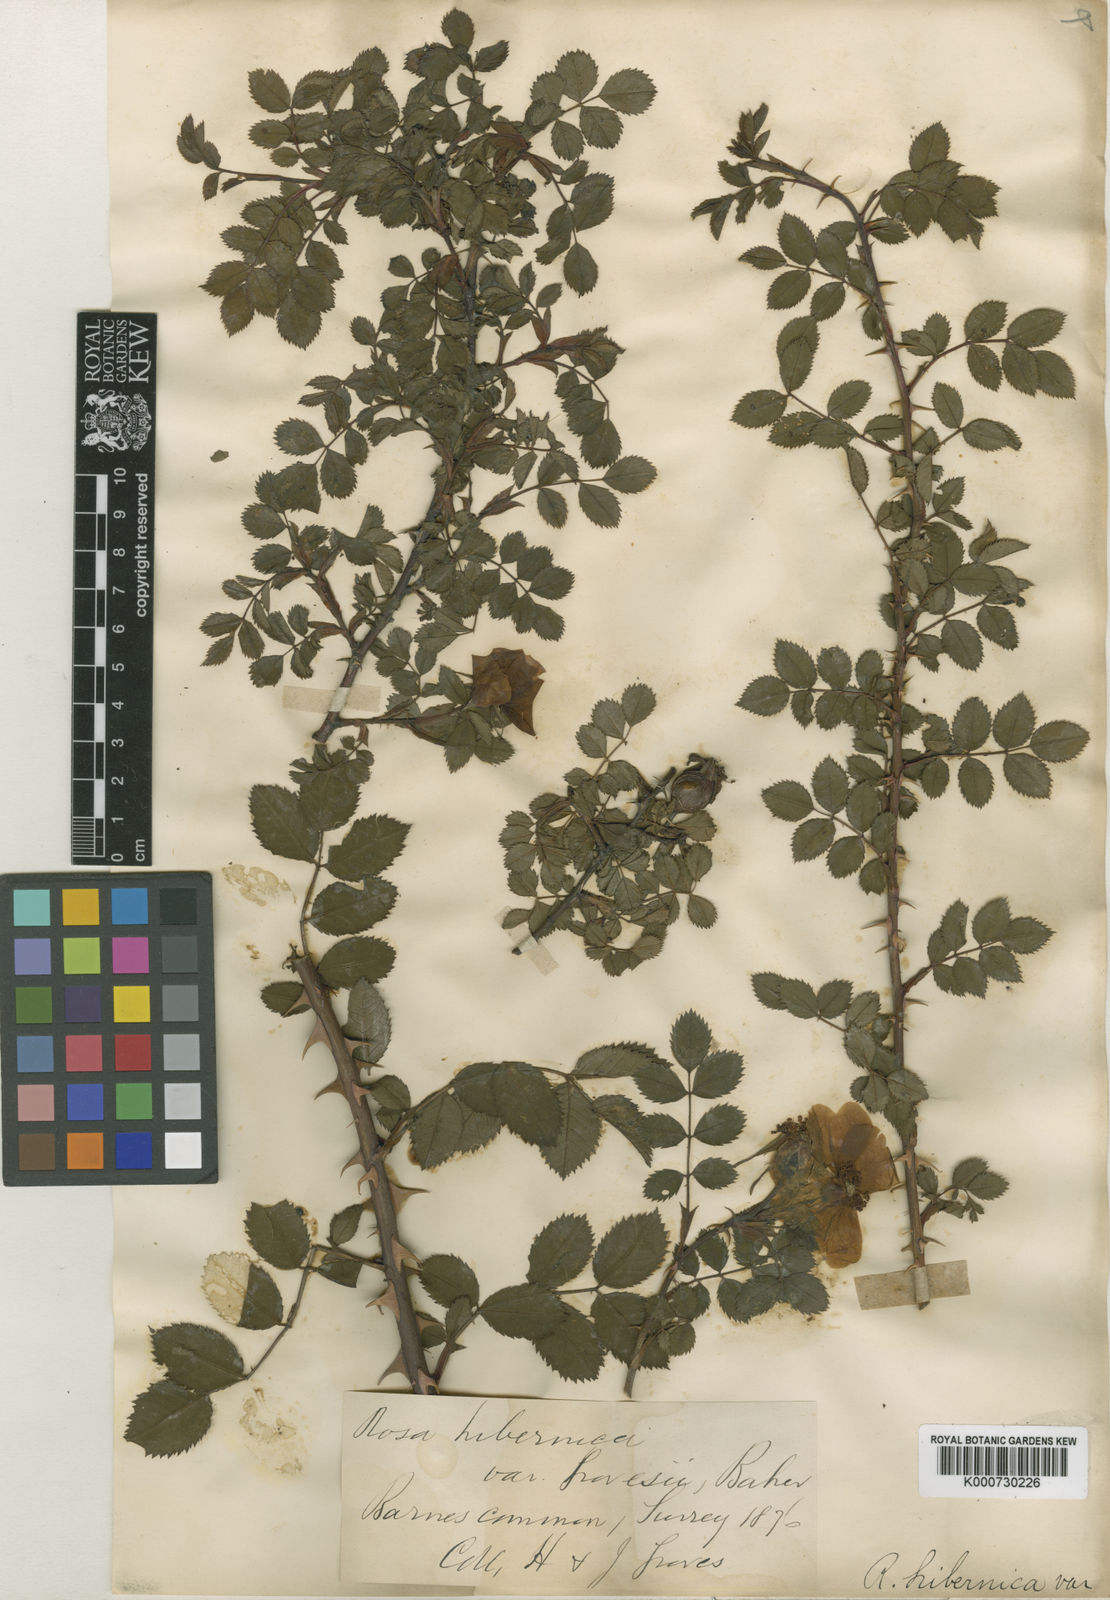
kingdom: Plantae
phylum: Tracheophyta
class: Magnoliopsida
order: Rosales
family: Rosaceae
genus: Rosa
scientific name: Rosa hibernica
